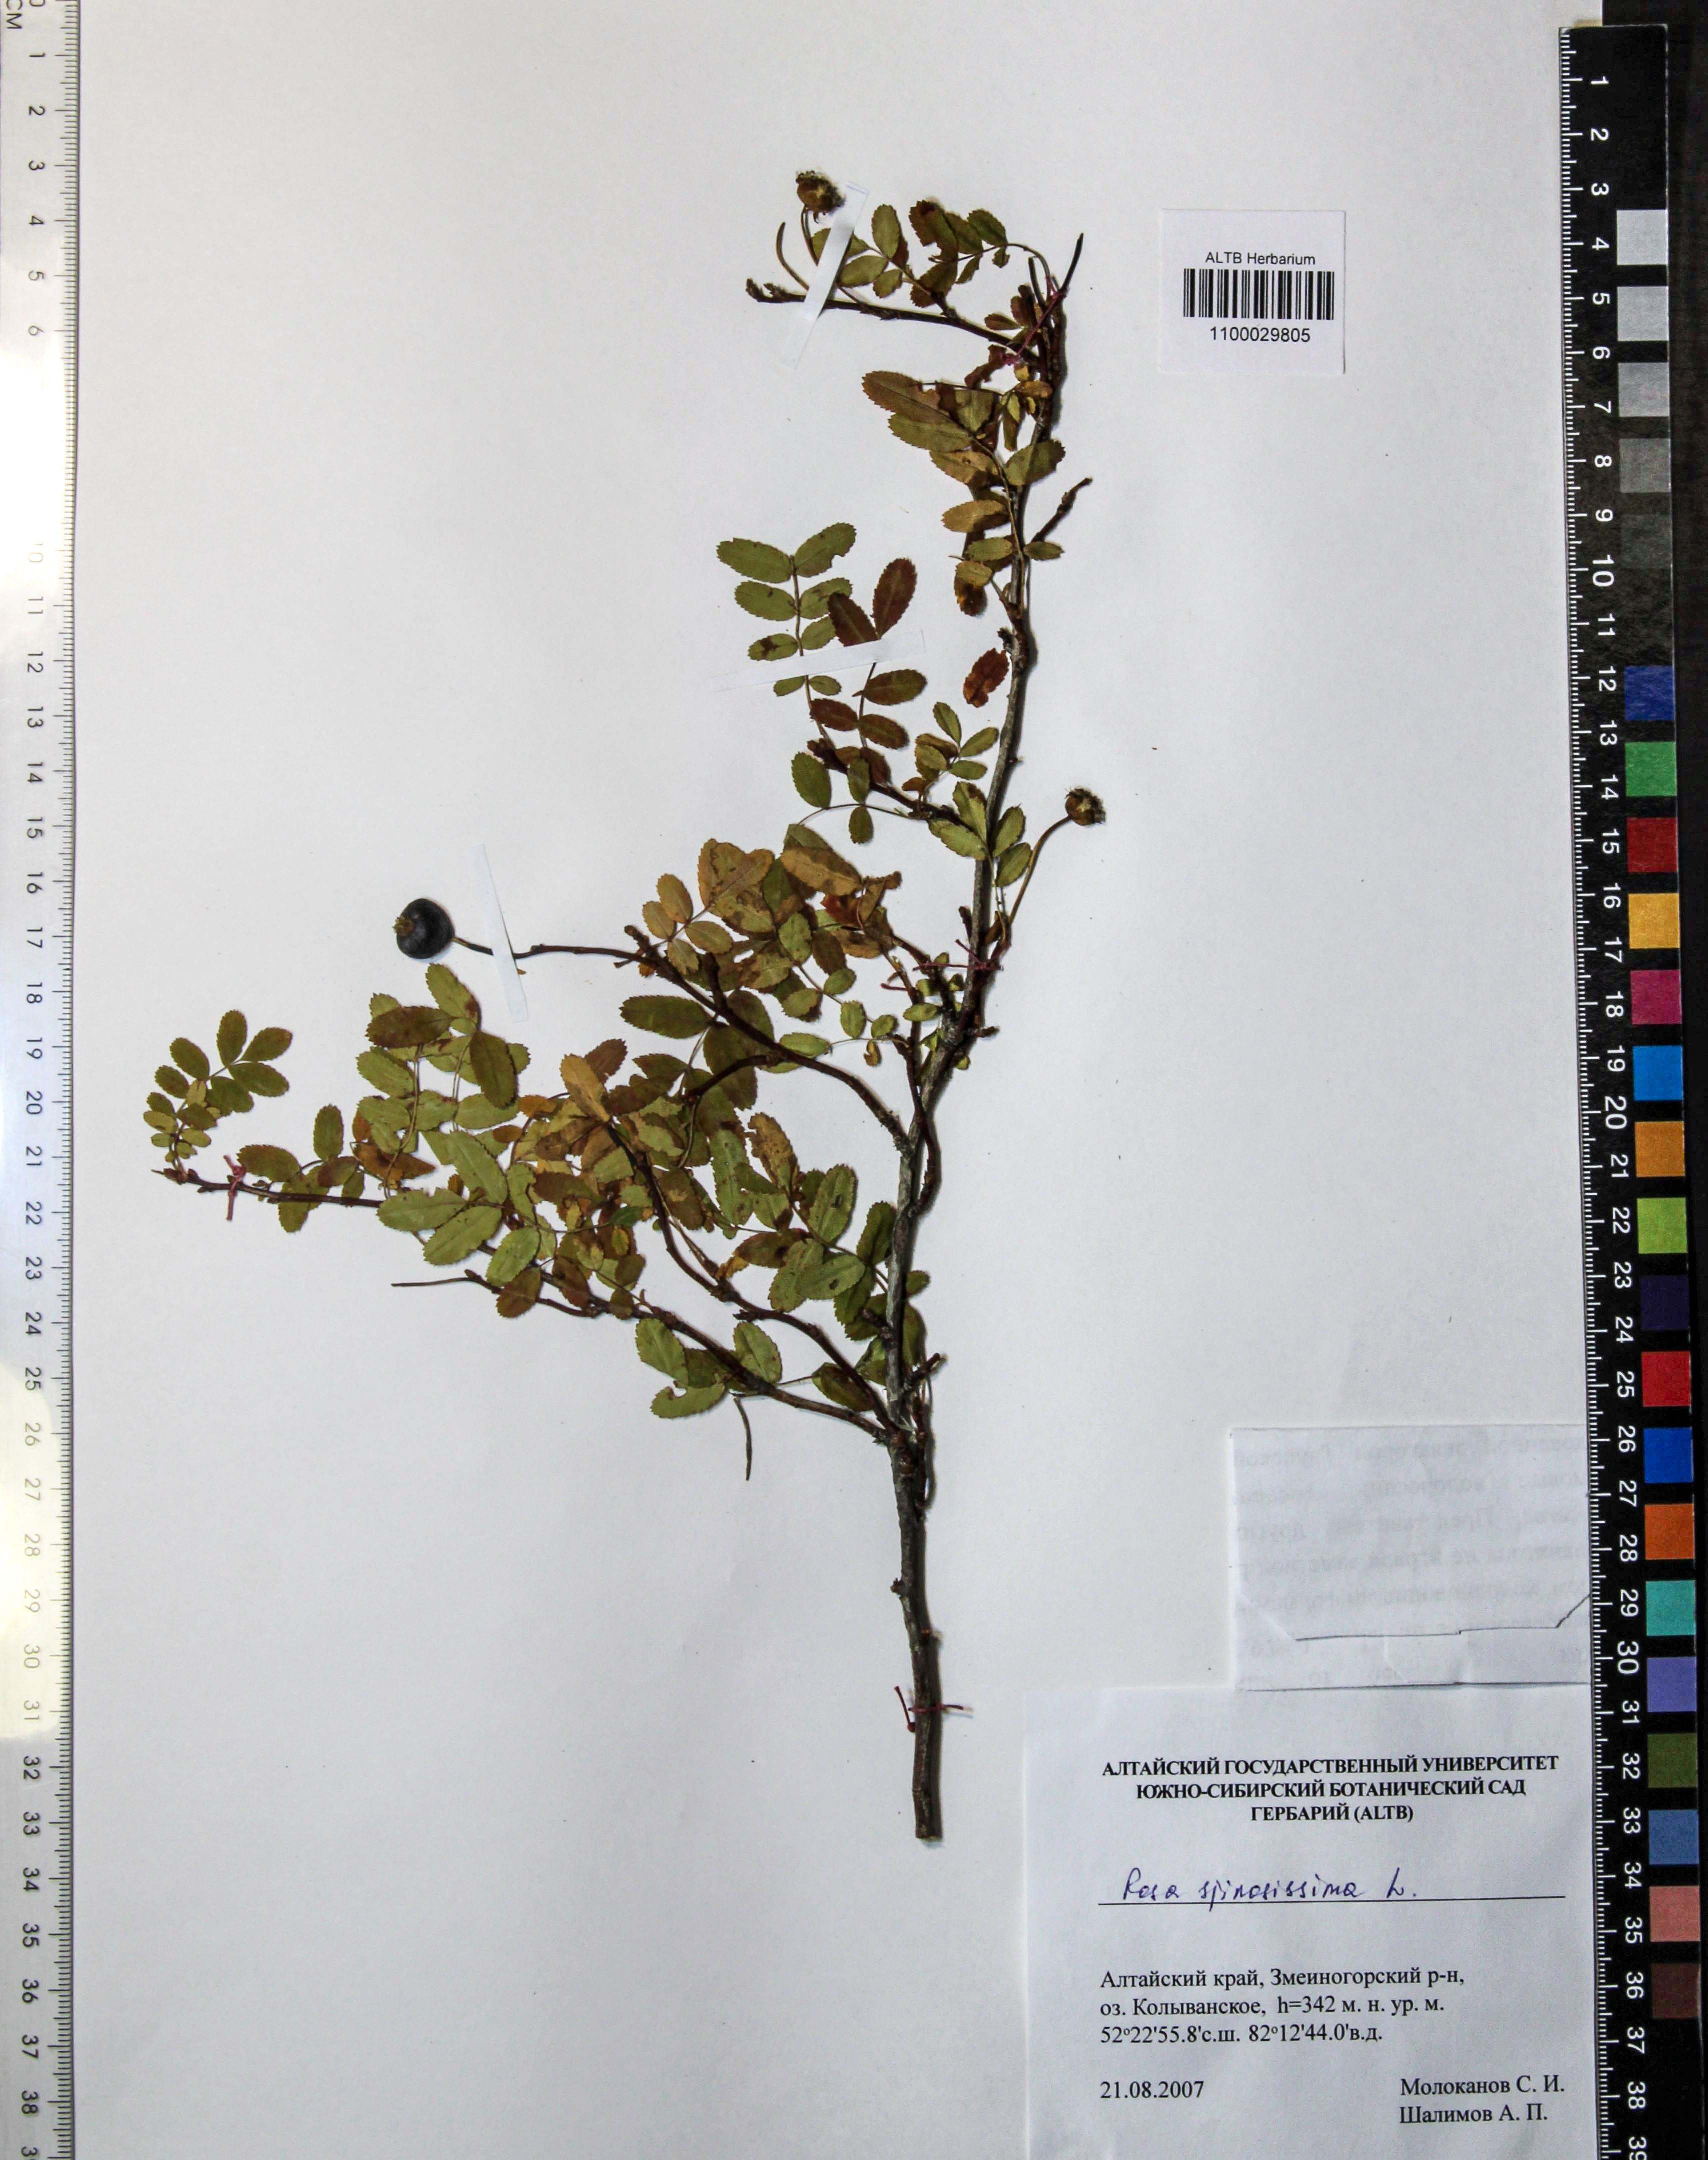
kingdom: Plantae
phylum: Tracheophyta
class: Magnoliopsida
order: Rosales
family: Rosaceae
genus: Rosa
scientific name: Rosa spinosissima
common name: Burnet rose
